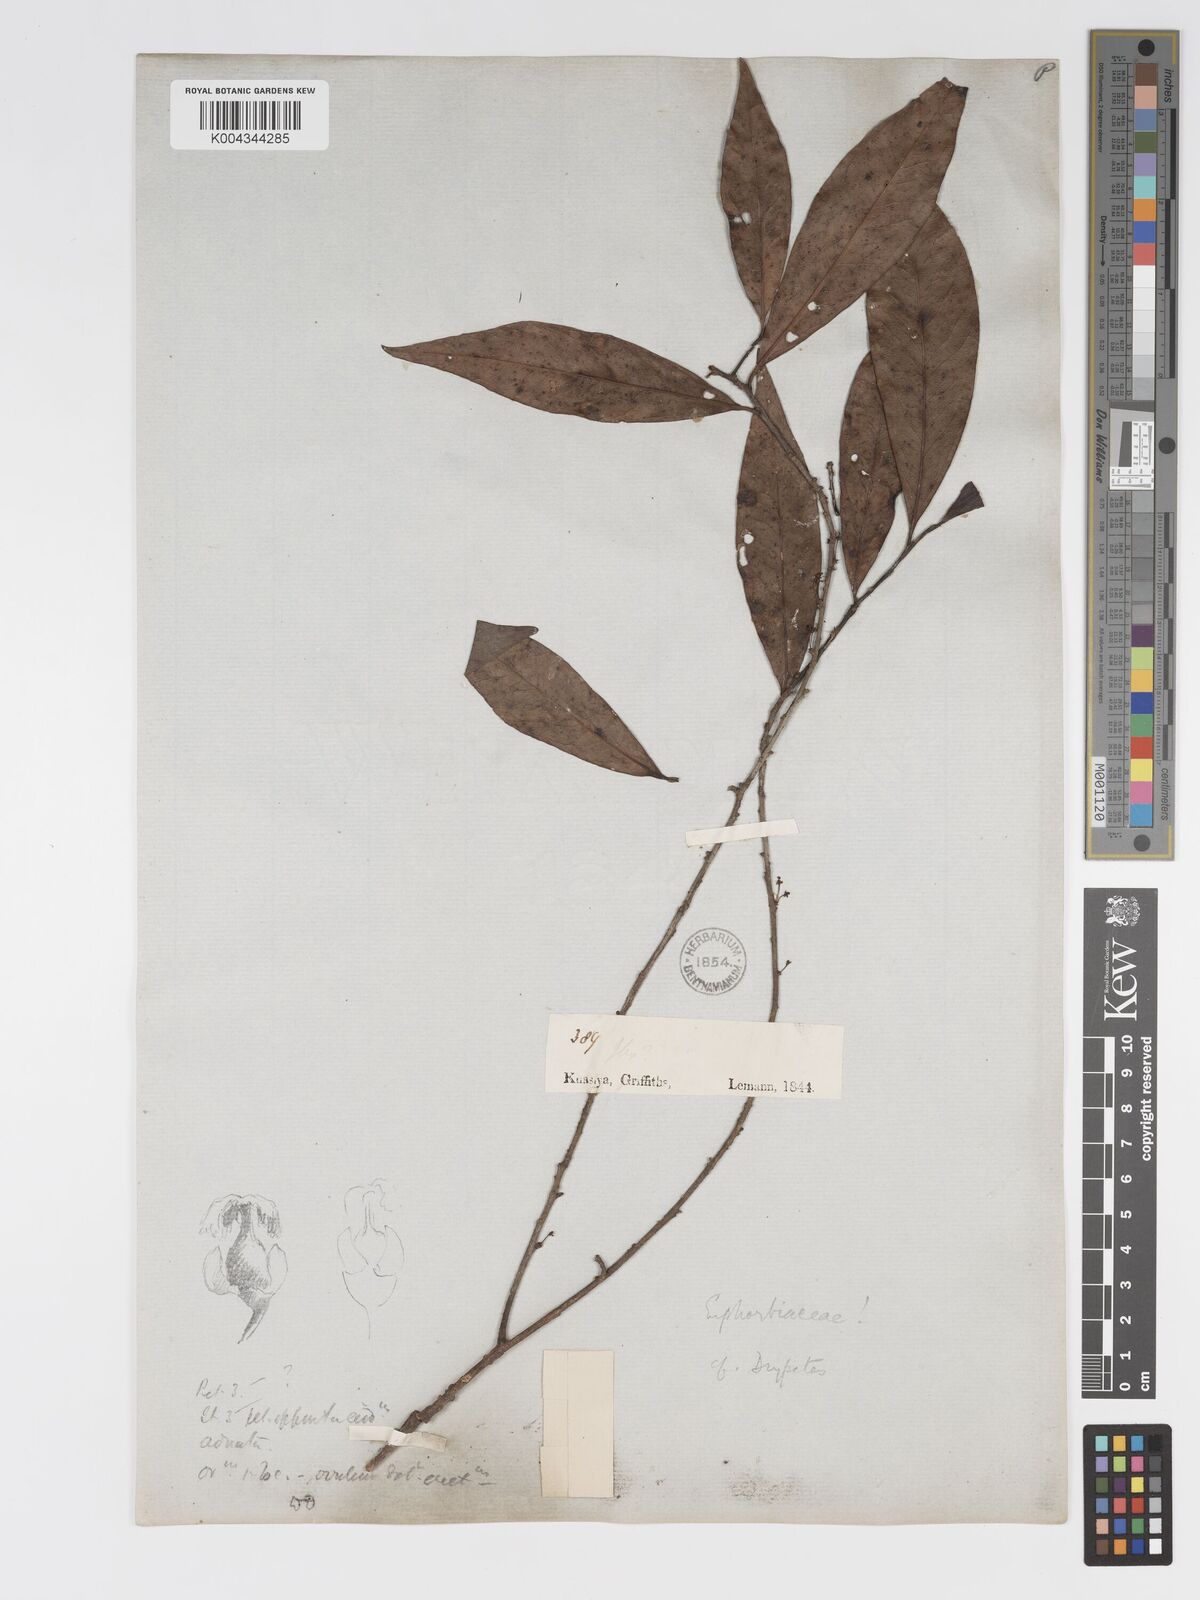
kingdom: Plantae
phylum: Tracheophyta
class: Magnoliopsida
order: Malpighiales
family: Putranjivaceae
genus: Drypetes
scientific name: Drypetes
